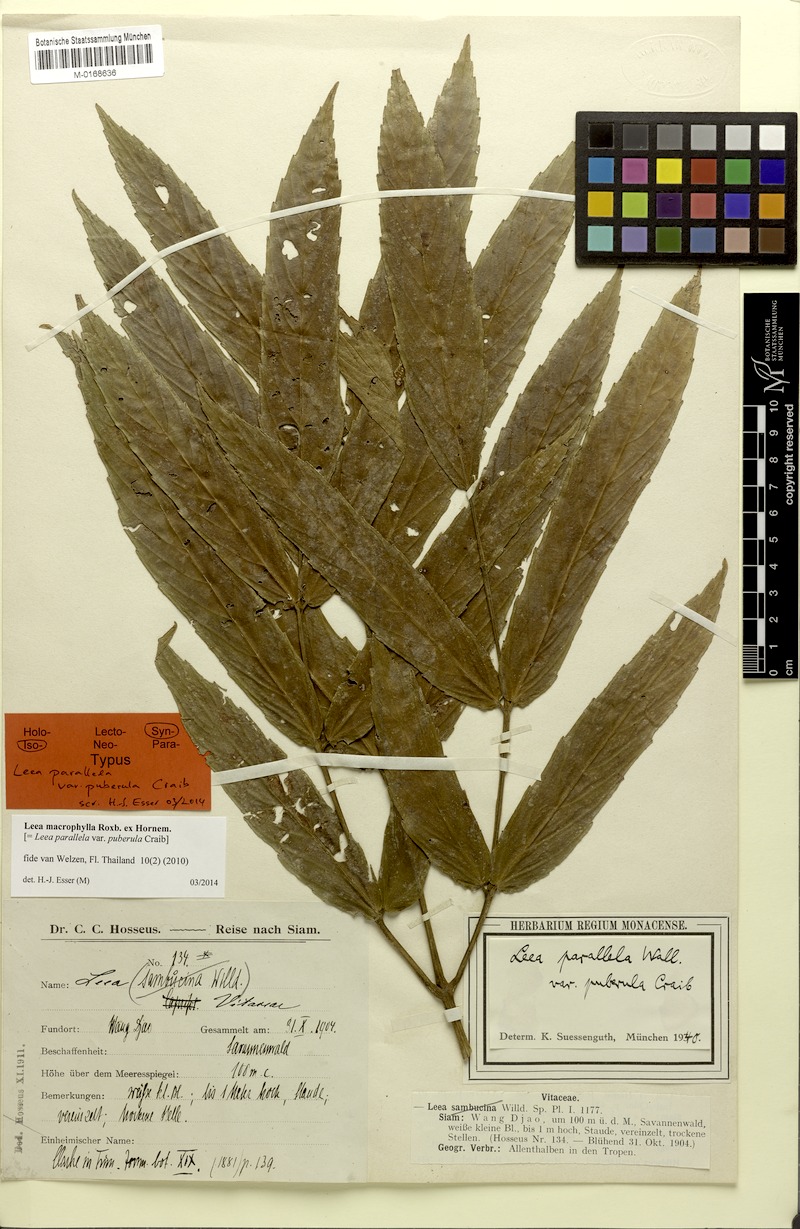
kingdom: Plantae
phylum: Tracheophyta
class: Magnoliopsida
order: Vitales
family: Vitaceae
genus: Leea
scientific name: Leea macrophylla
